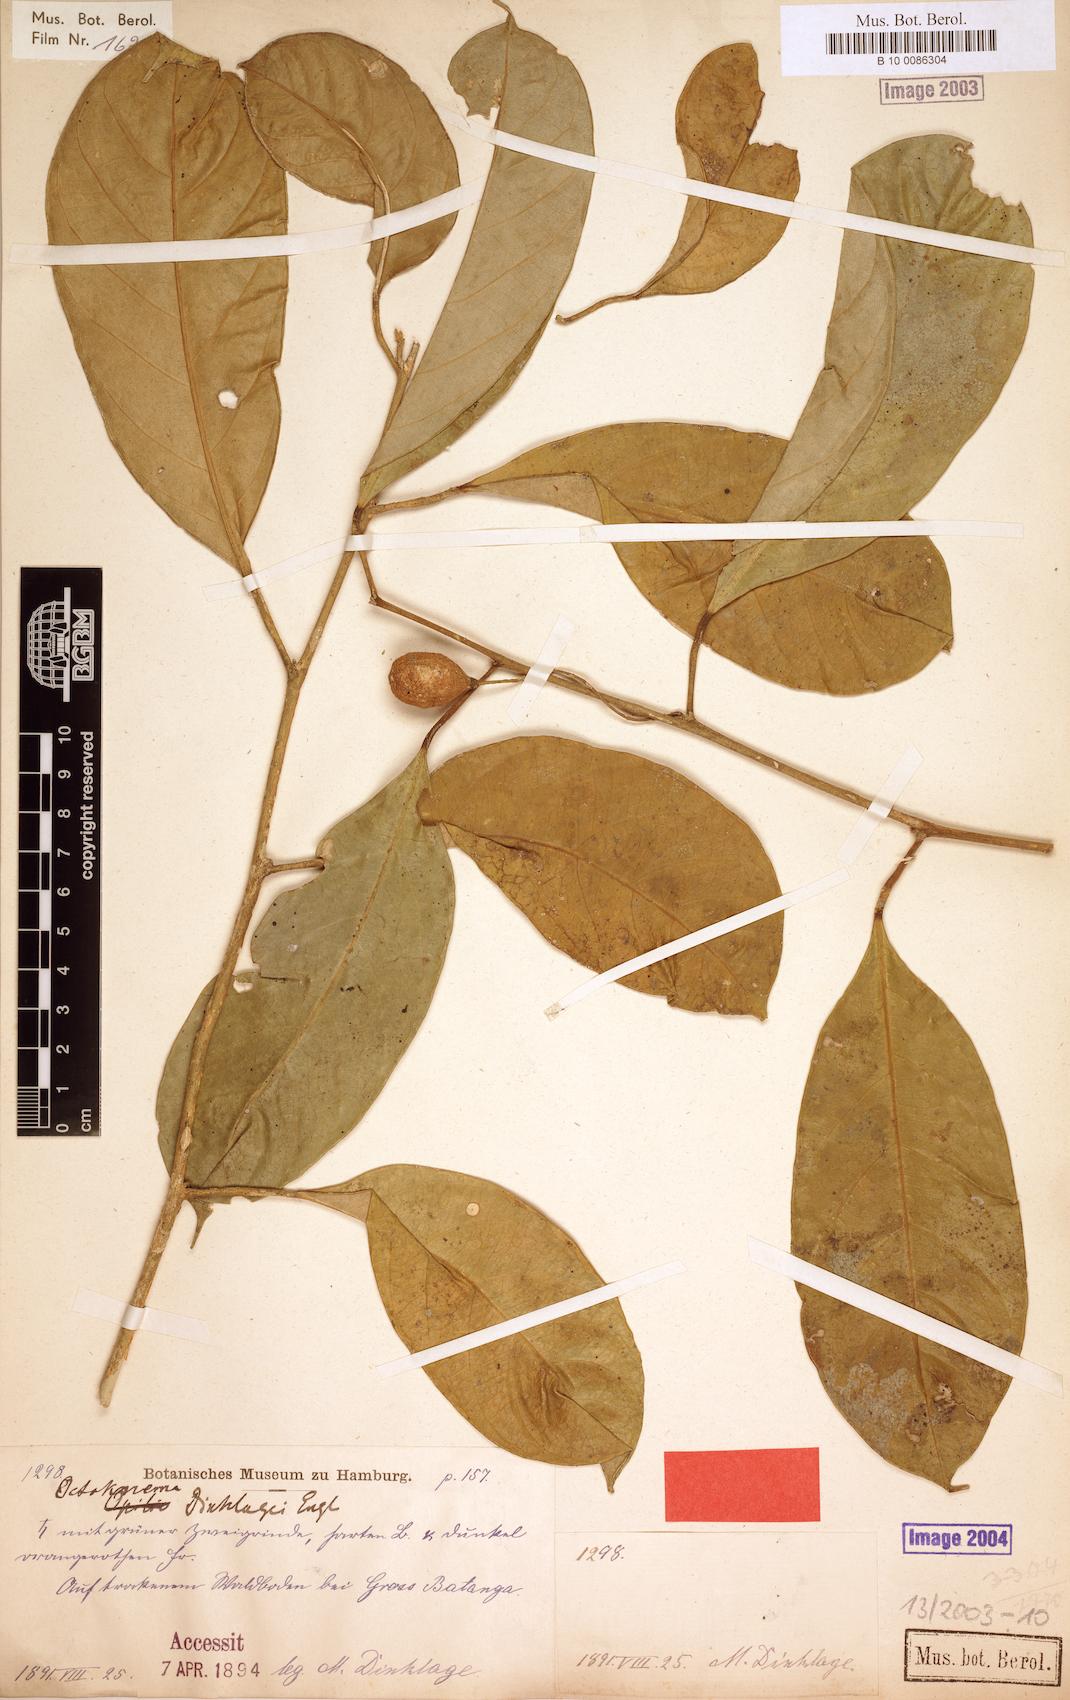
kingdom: Plantae
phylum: Tracheophyta
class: Magnoliopsida
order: Santalales
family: Octoknemaceae
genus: Octoknema
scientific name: Octoknema dinklagei
